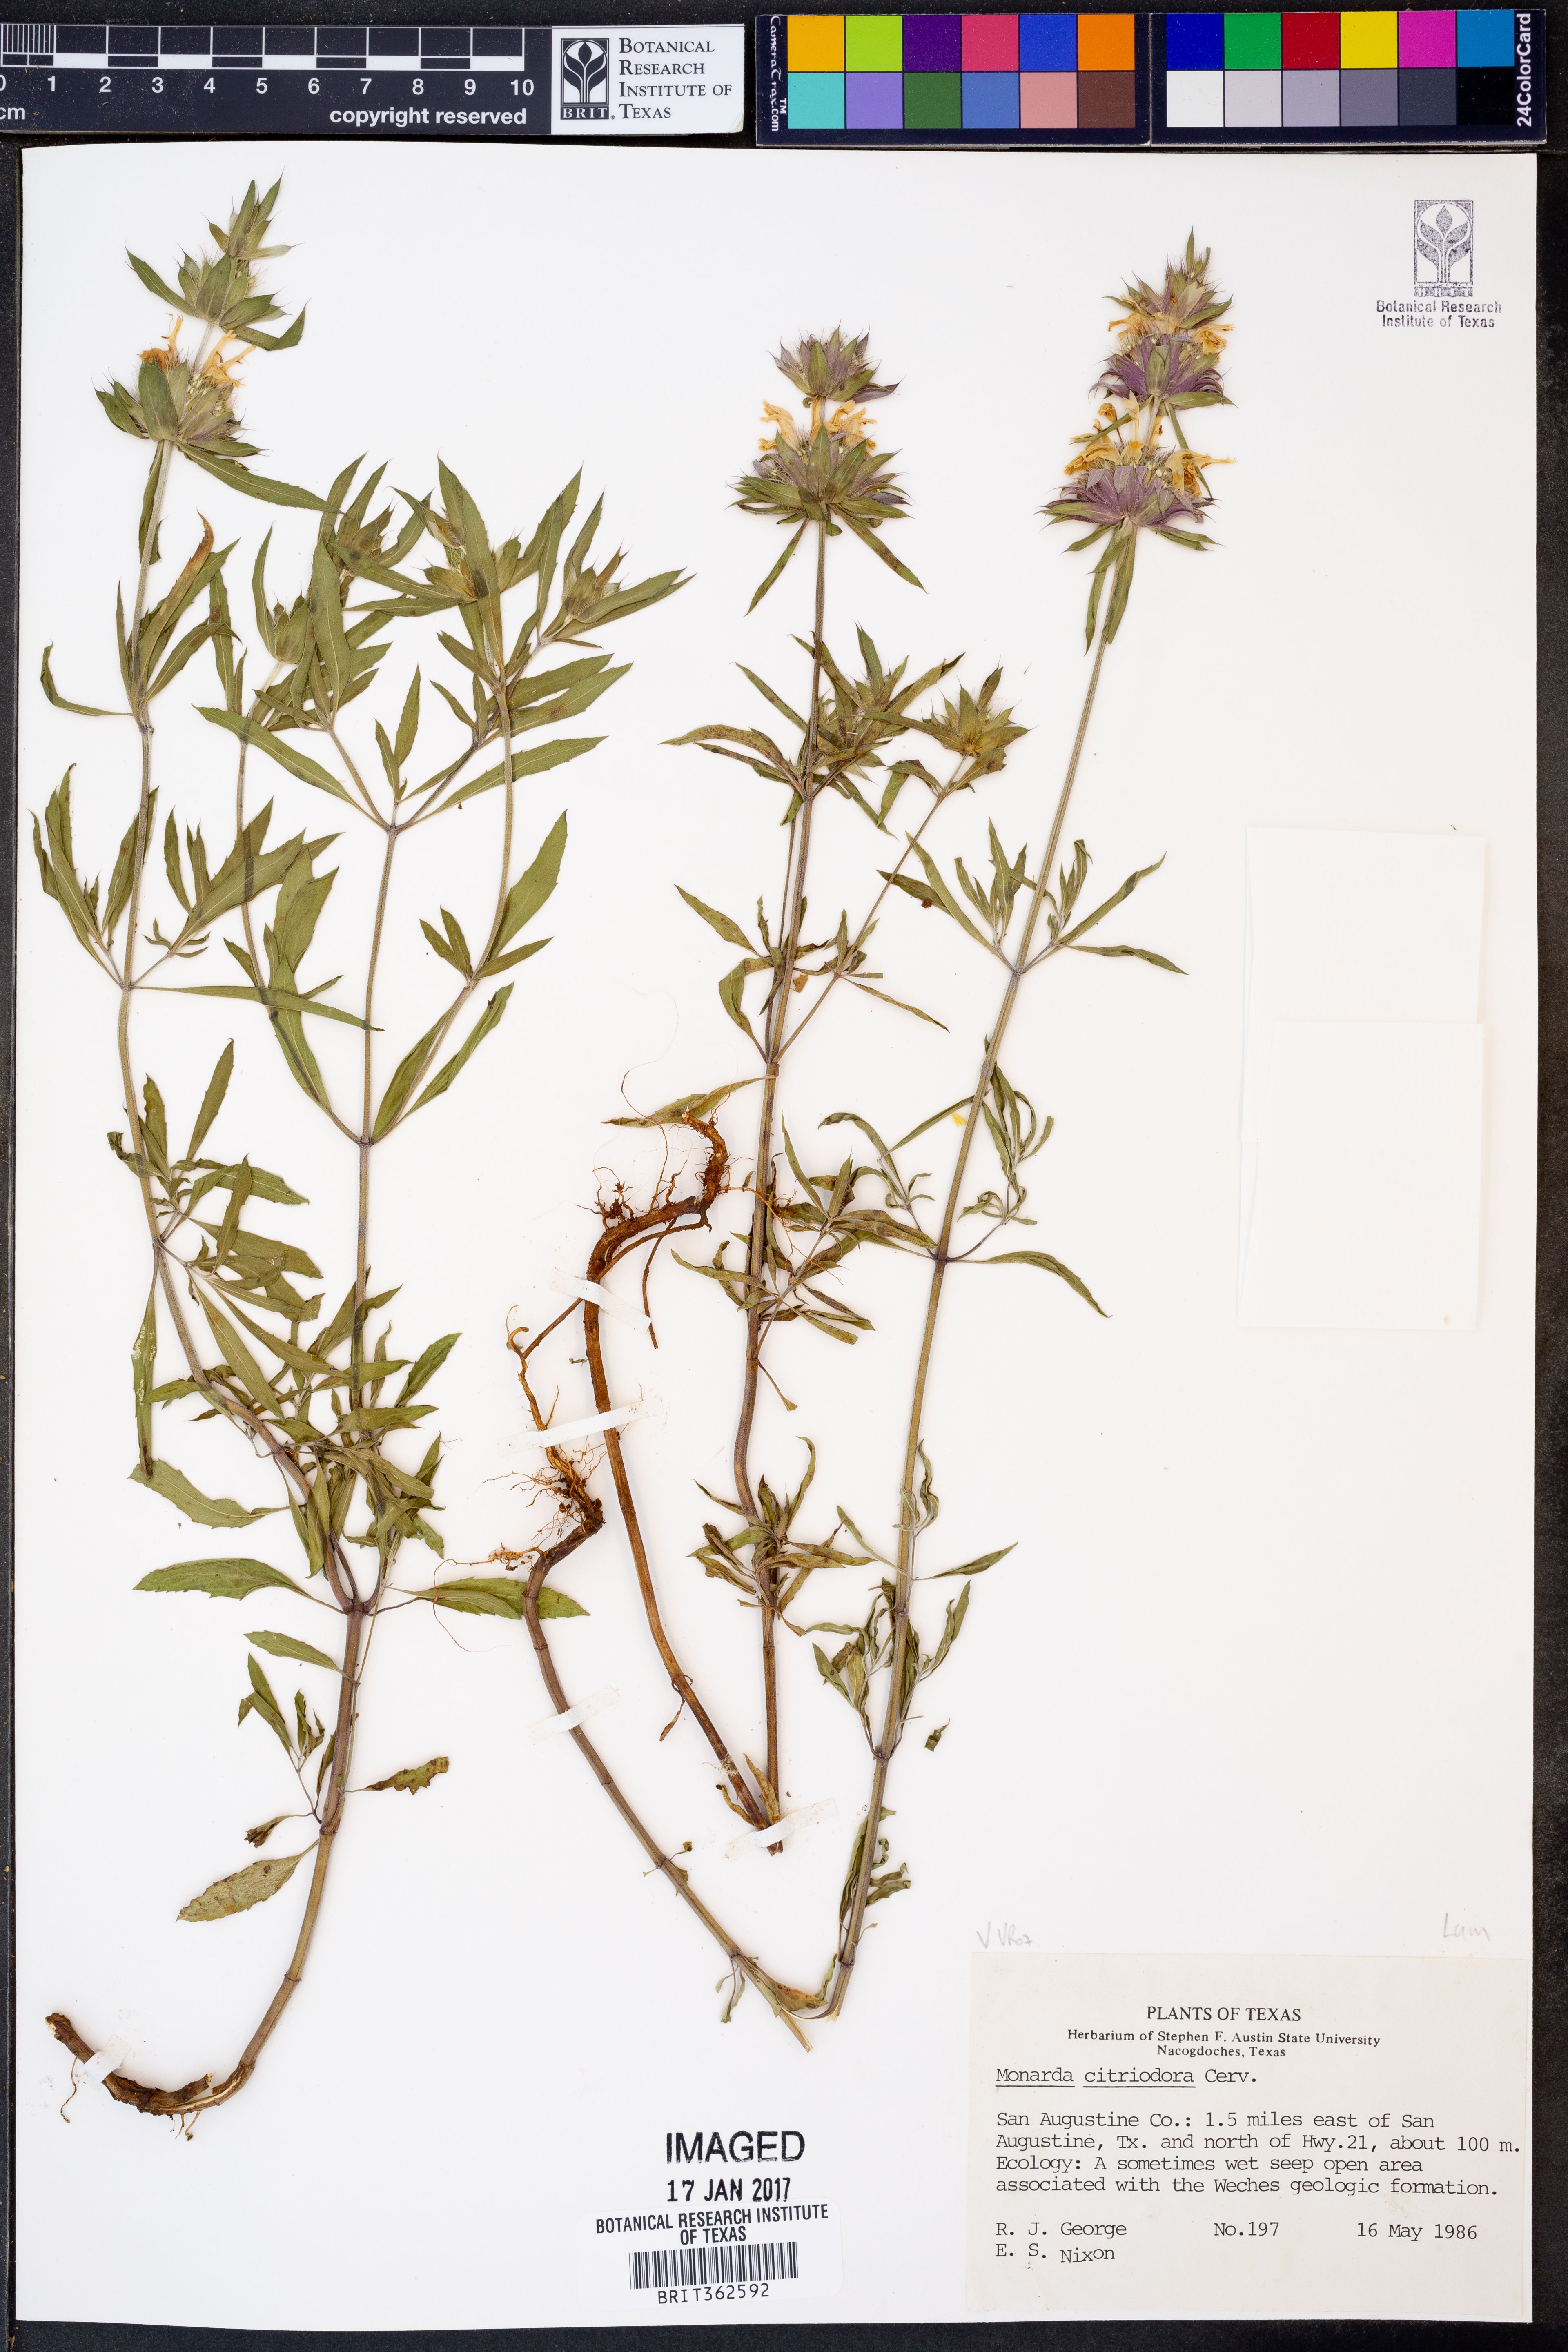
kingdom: Plantae
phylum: Tracheophyta
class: Magnoliopsida
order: Lamiales
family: Lamiaceae
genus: Monarda
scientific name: Monarda citriodora
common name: Lemon beebalm
